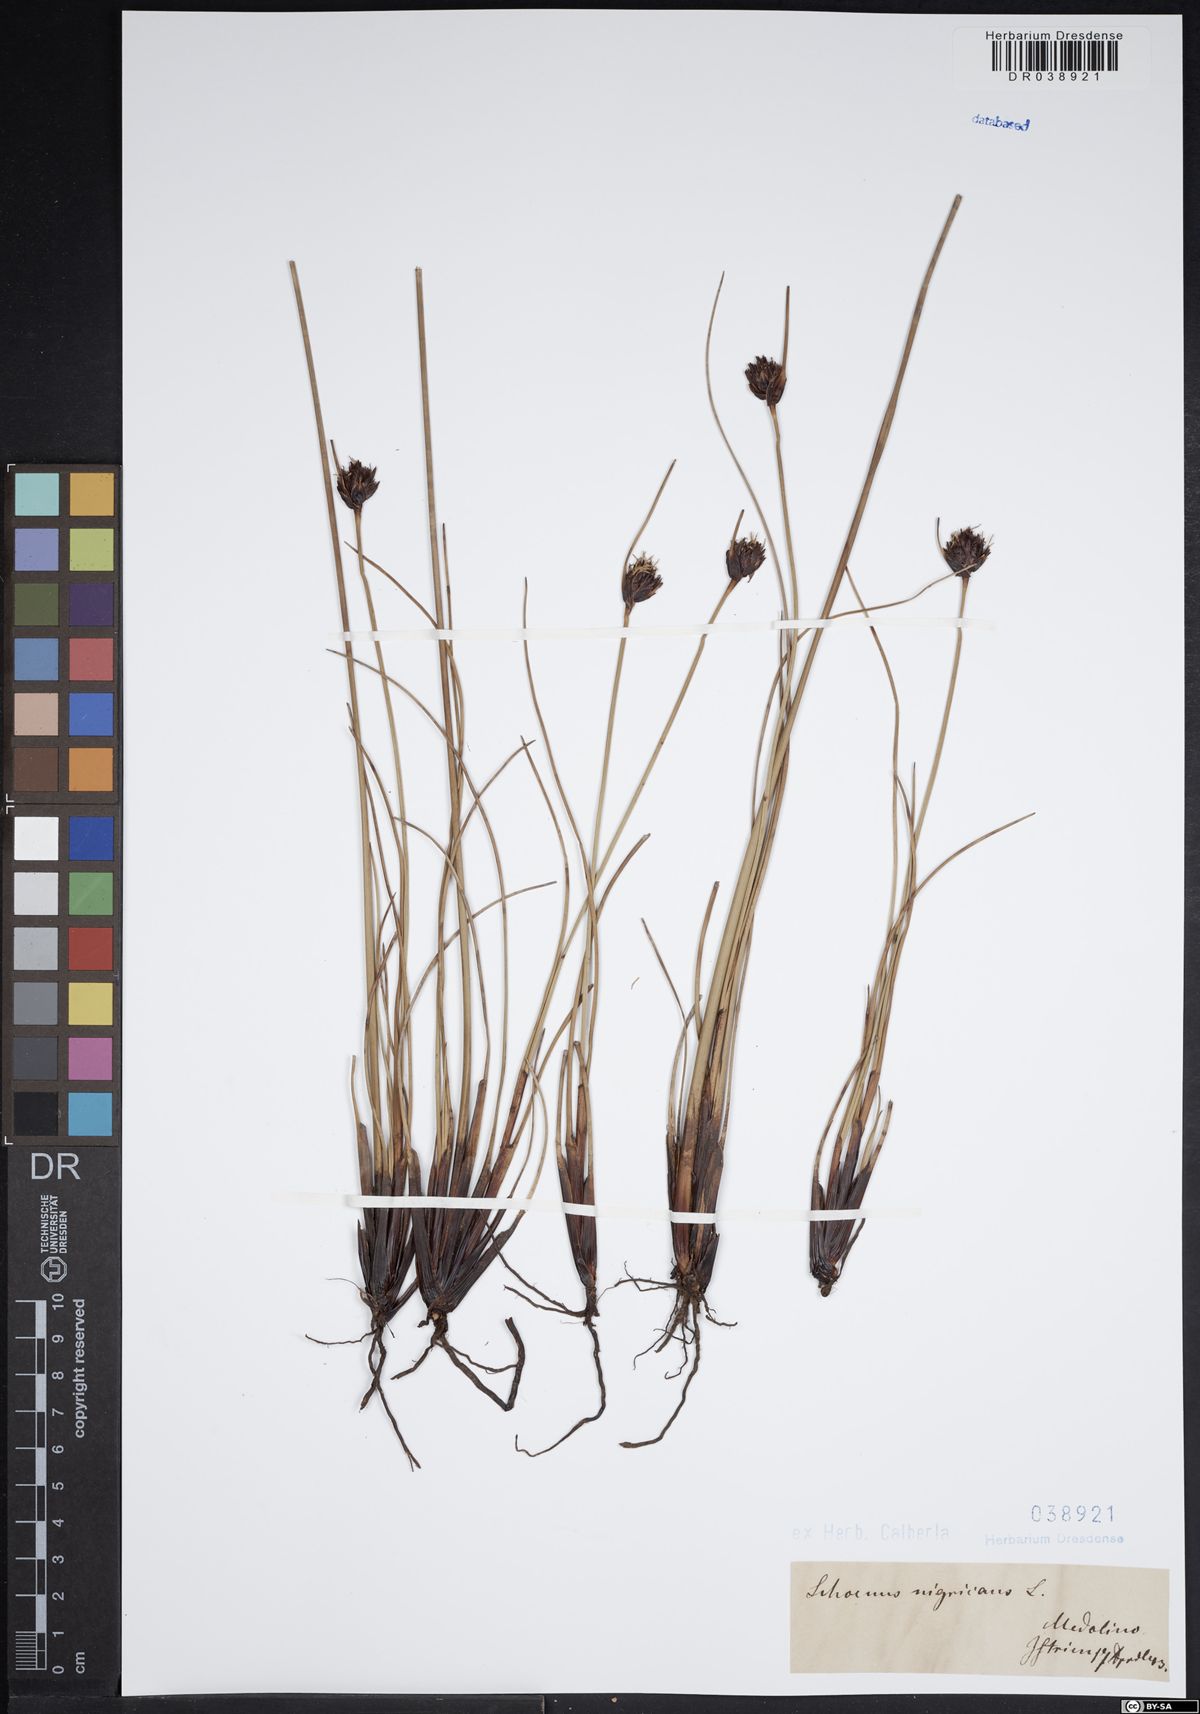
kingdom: Plantae
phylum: Tracheophyta
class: Liliopsida
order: Poales
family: Cyperaceae
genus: Schoenus
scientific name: Schoenus nigricans
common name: Black bog-rush
